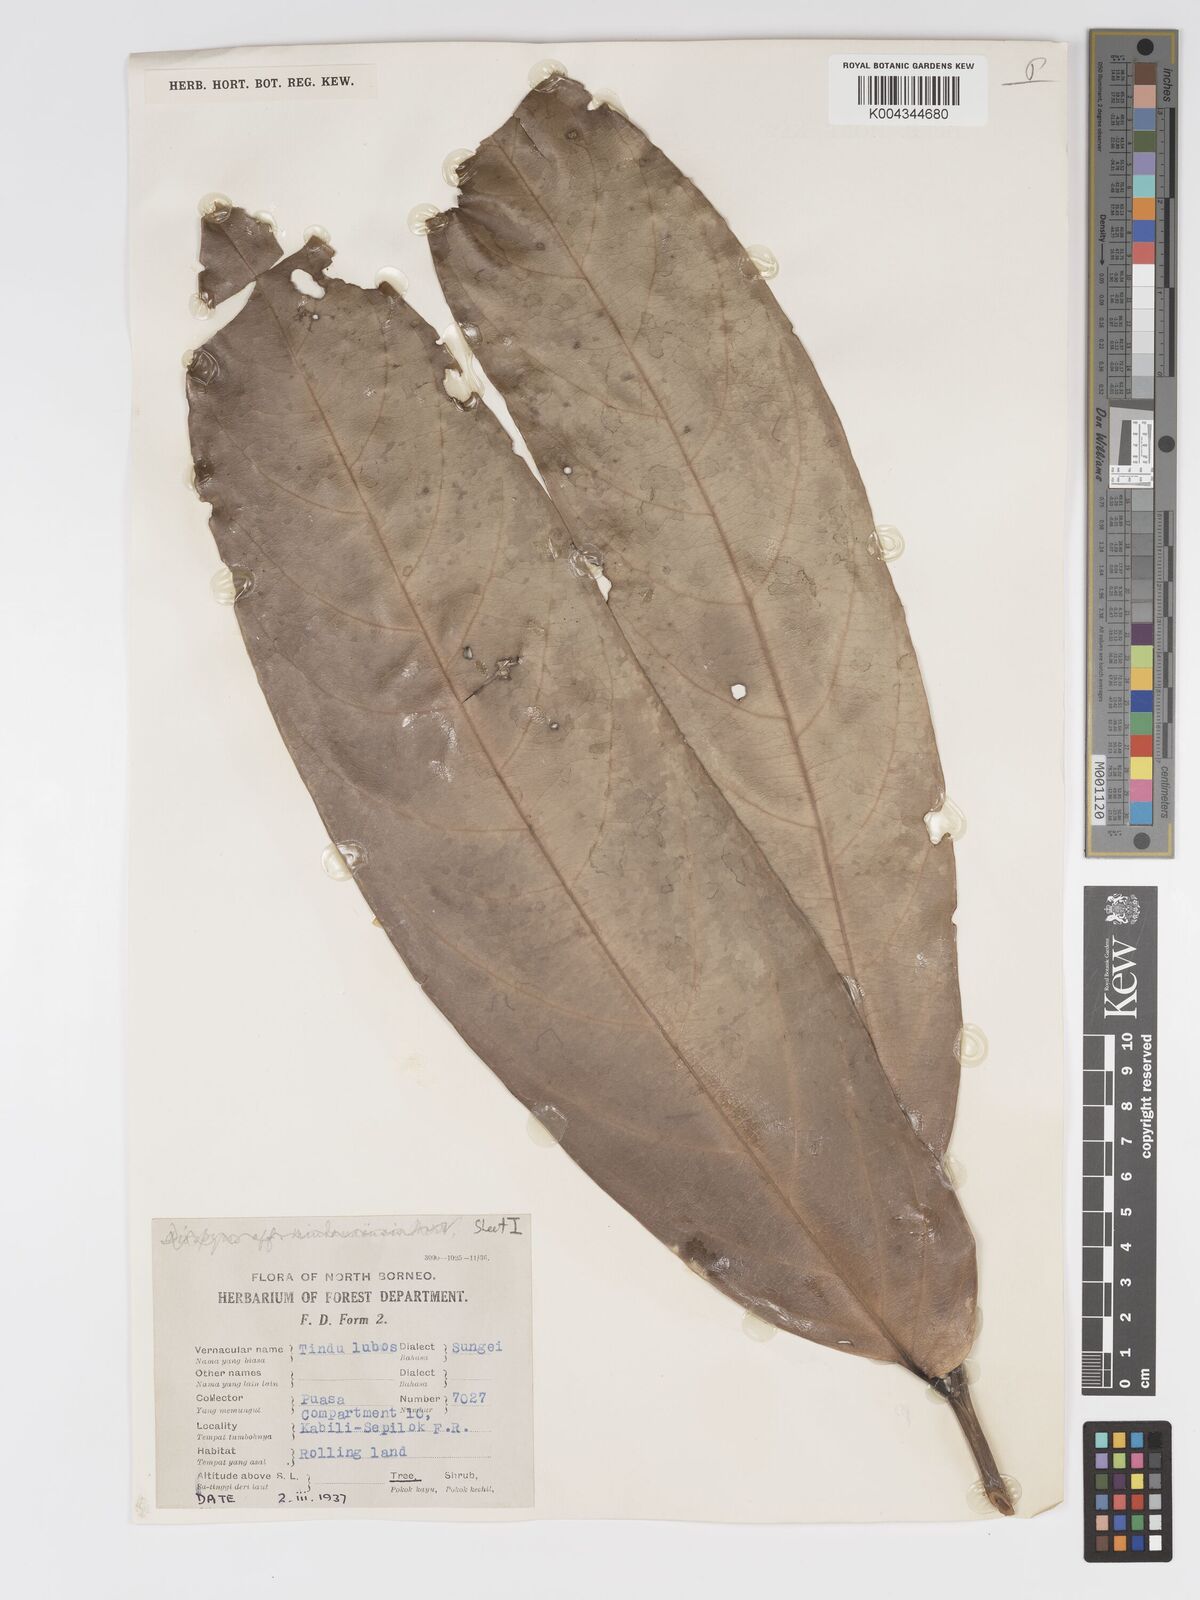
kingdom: Plantae
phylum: Tracheophyta
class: Magnoliopsida
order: Malpighiales
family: Putranjivaceae
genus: Drypetes
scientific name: Drypetes longifolia
